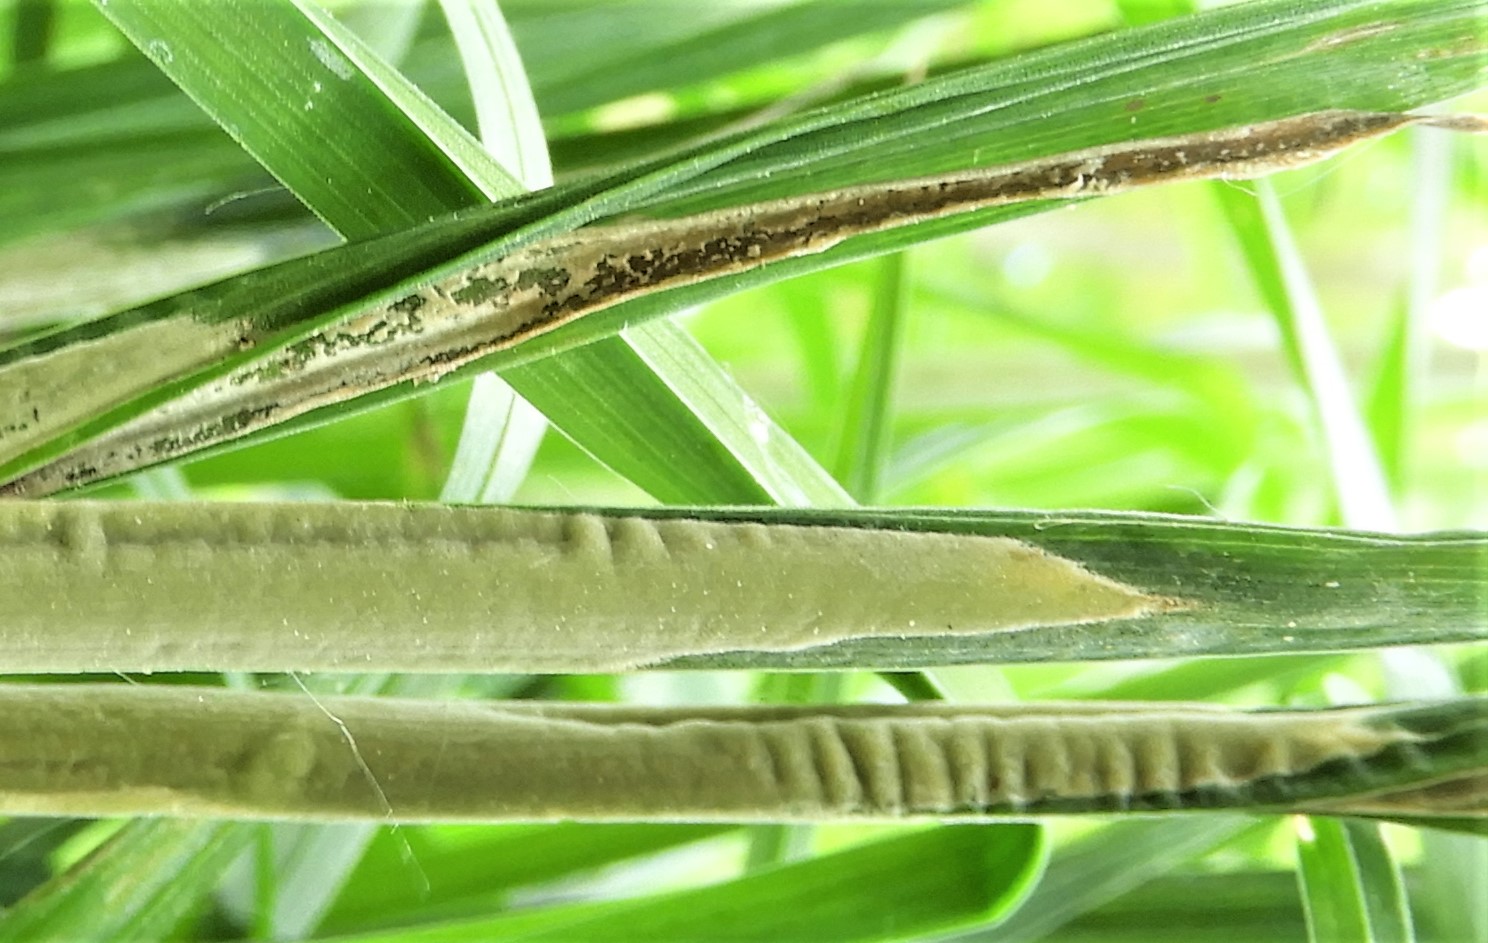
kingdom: Fungi
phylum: Ascomycota
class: Sordariomycetes
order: Hypocreales
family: Clavicipitaceae
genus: Epichloe
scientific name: Epichloe typhina
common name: almindelig kernerør
